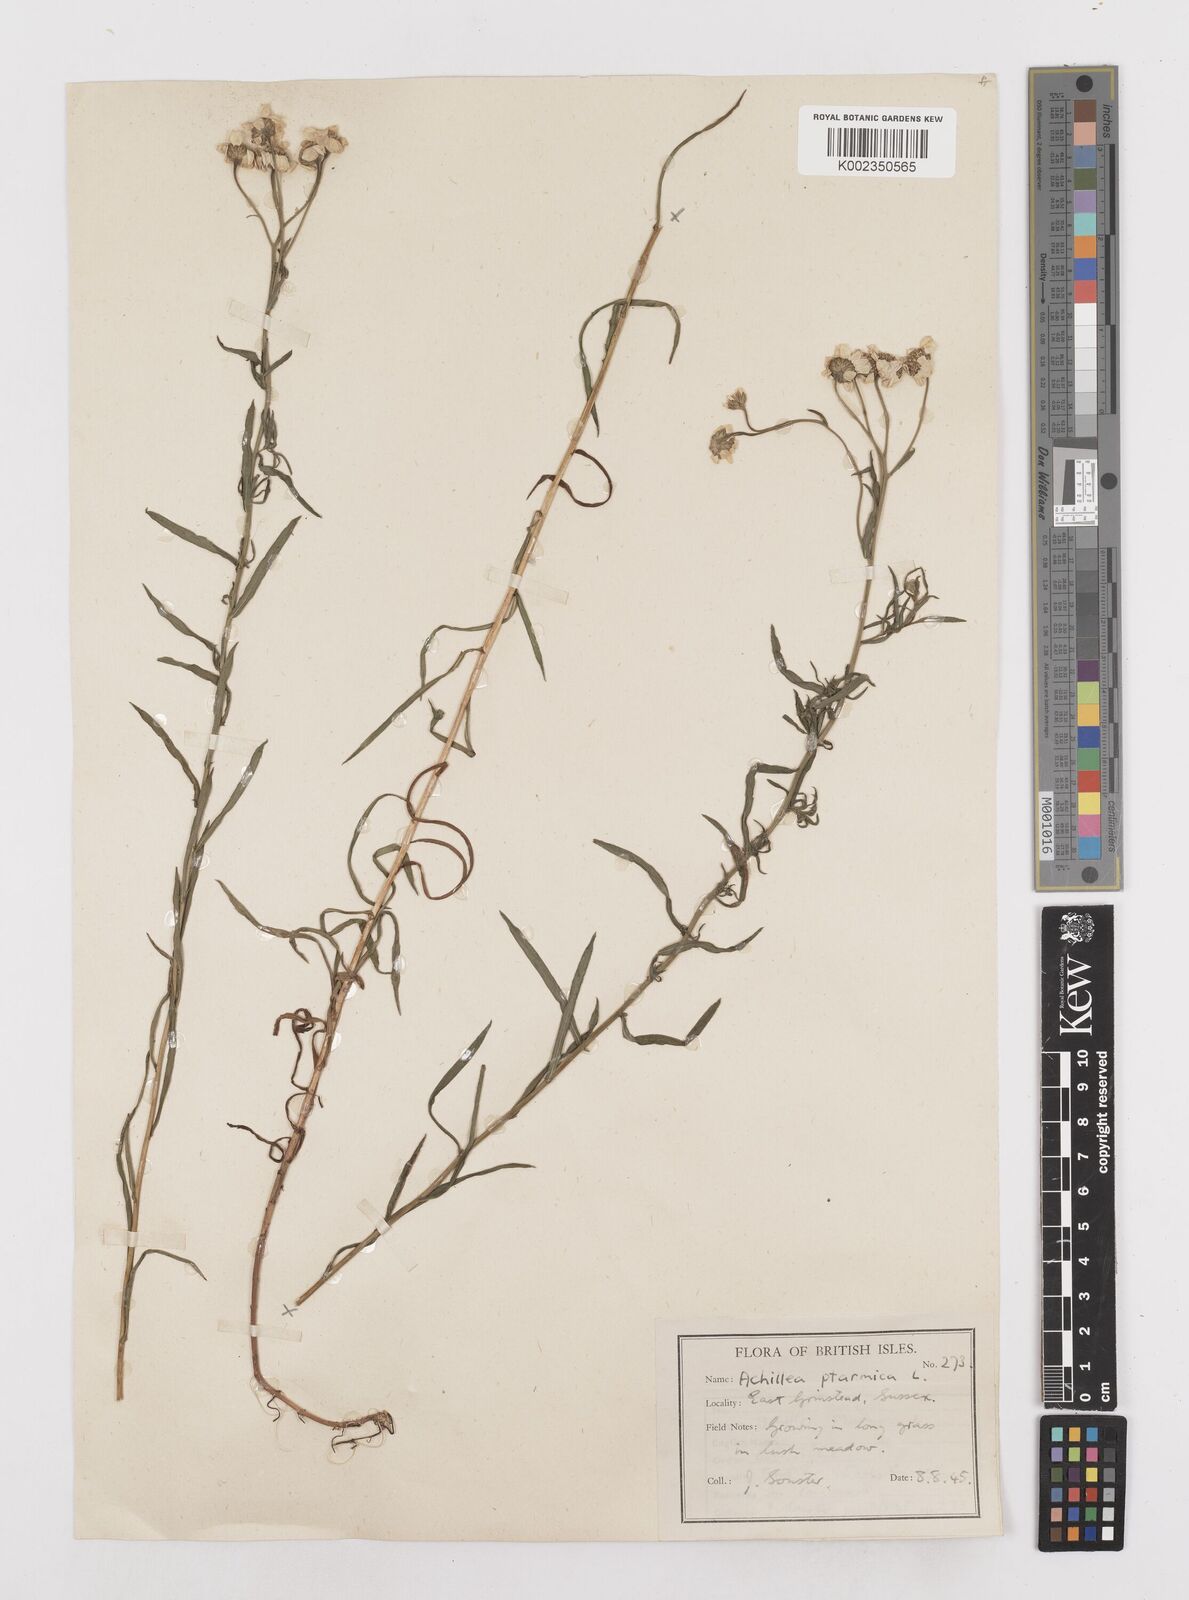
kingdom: Plantae
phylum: Tracheophyta
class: Magnoliopsida
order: Asterales
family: Asteraceae
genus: Achillea
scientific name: Achillea ptarmica
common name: Sneezeweed
